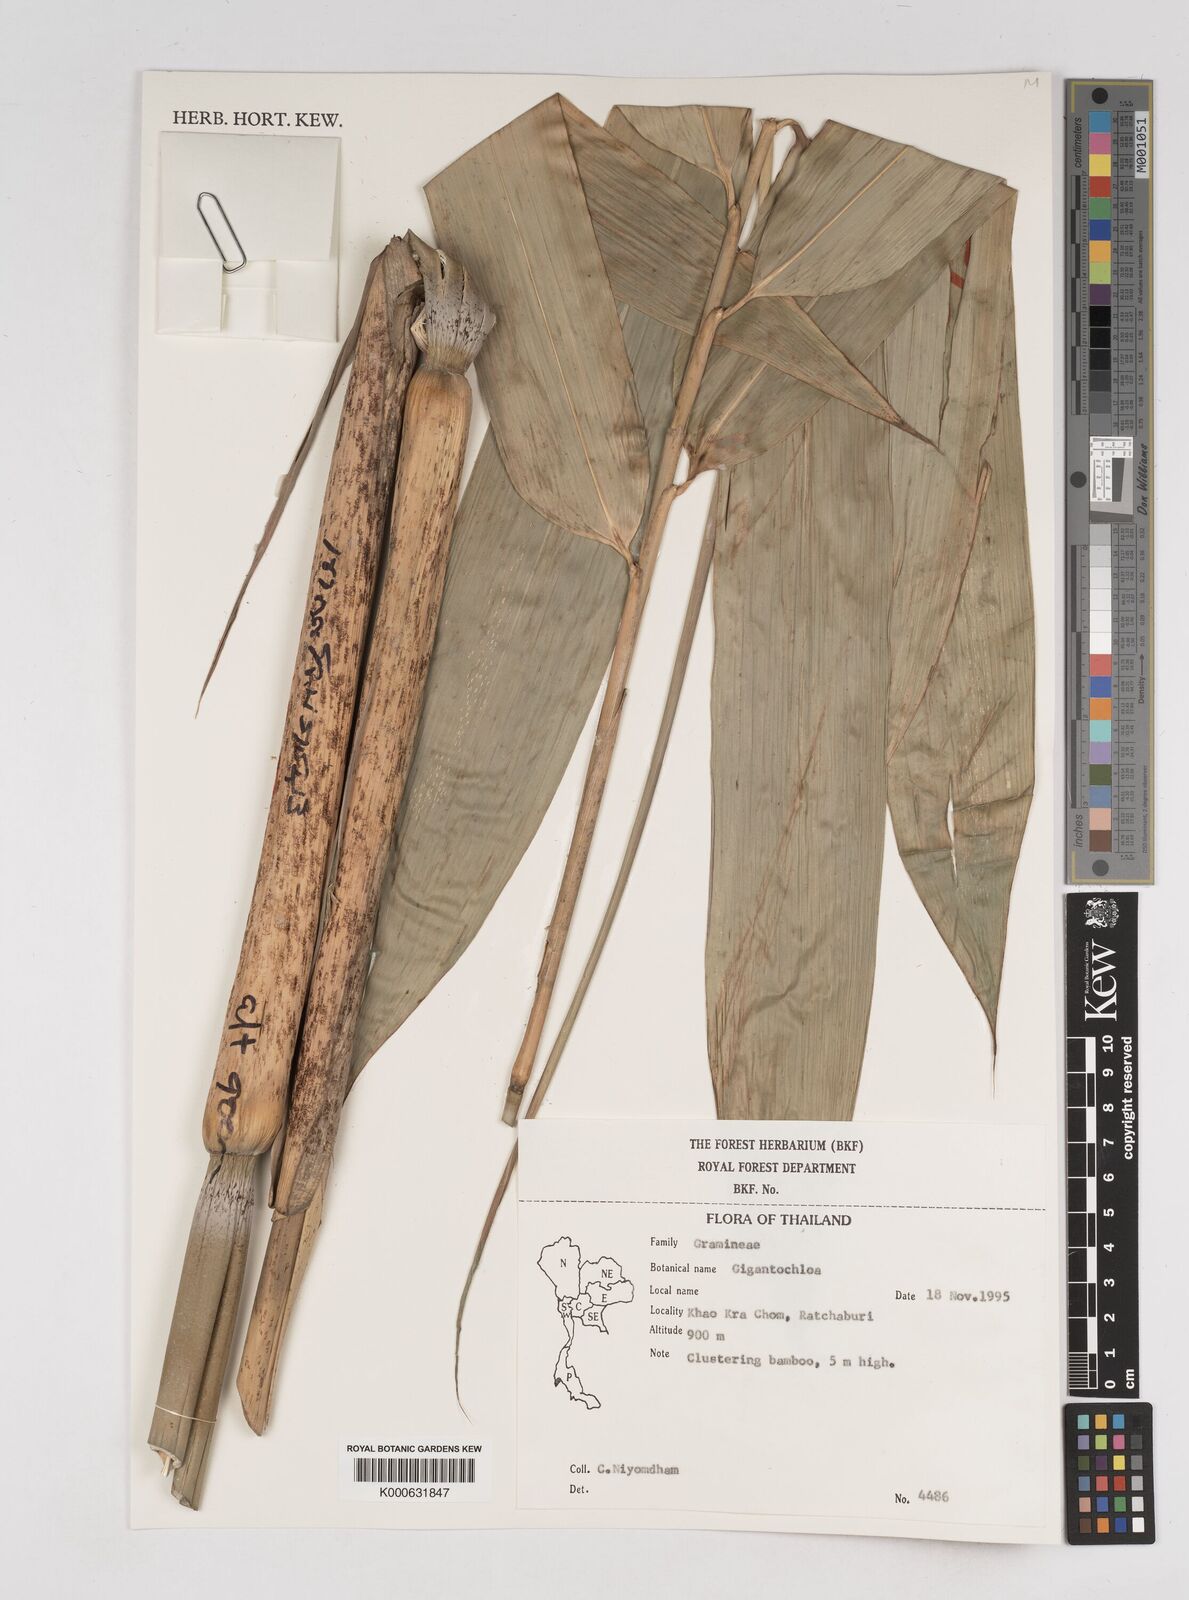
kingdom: Plantae
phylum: Tracheophyta
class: Liliopsida
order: Poales
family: Poaceae
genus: Gigantochloa
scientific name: Gigantochloa
